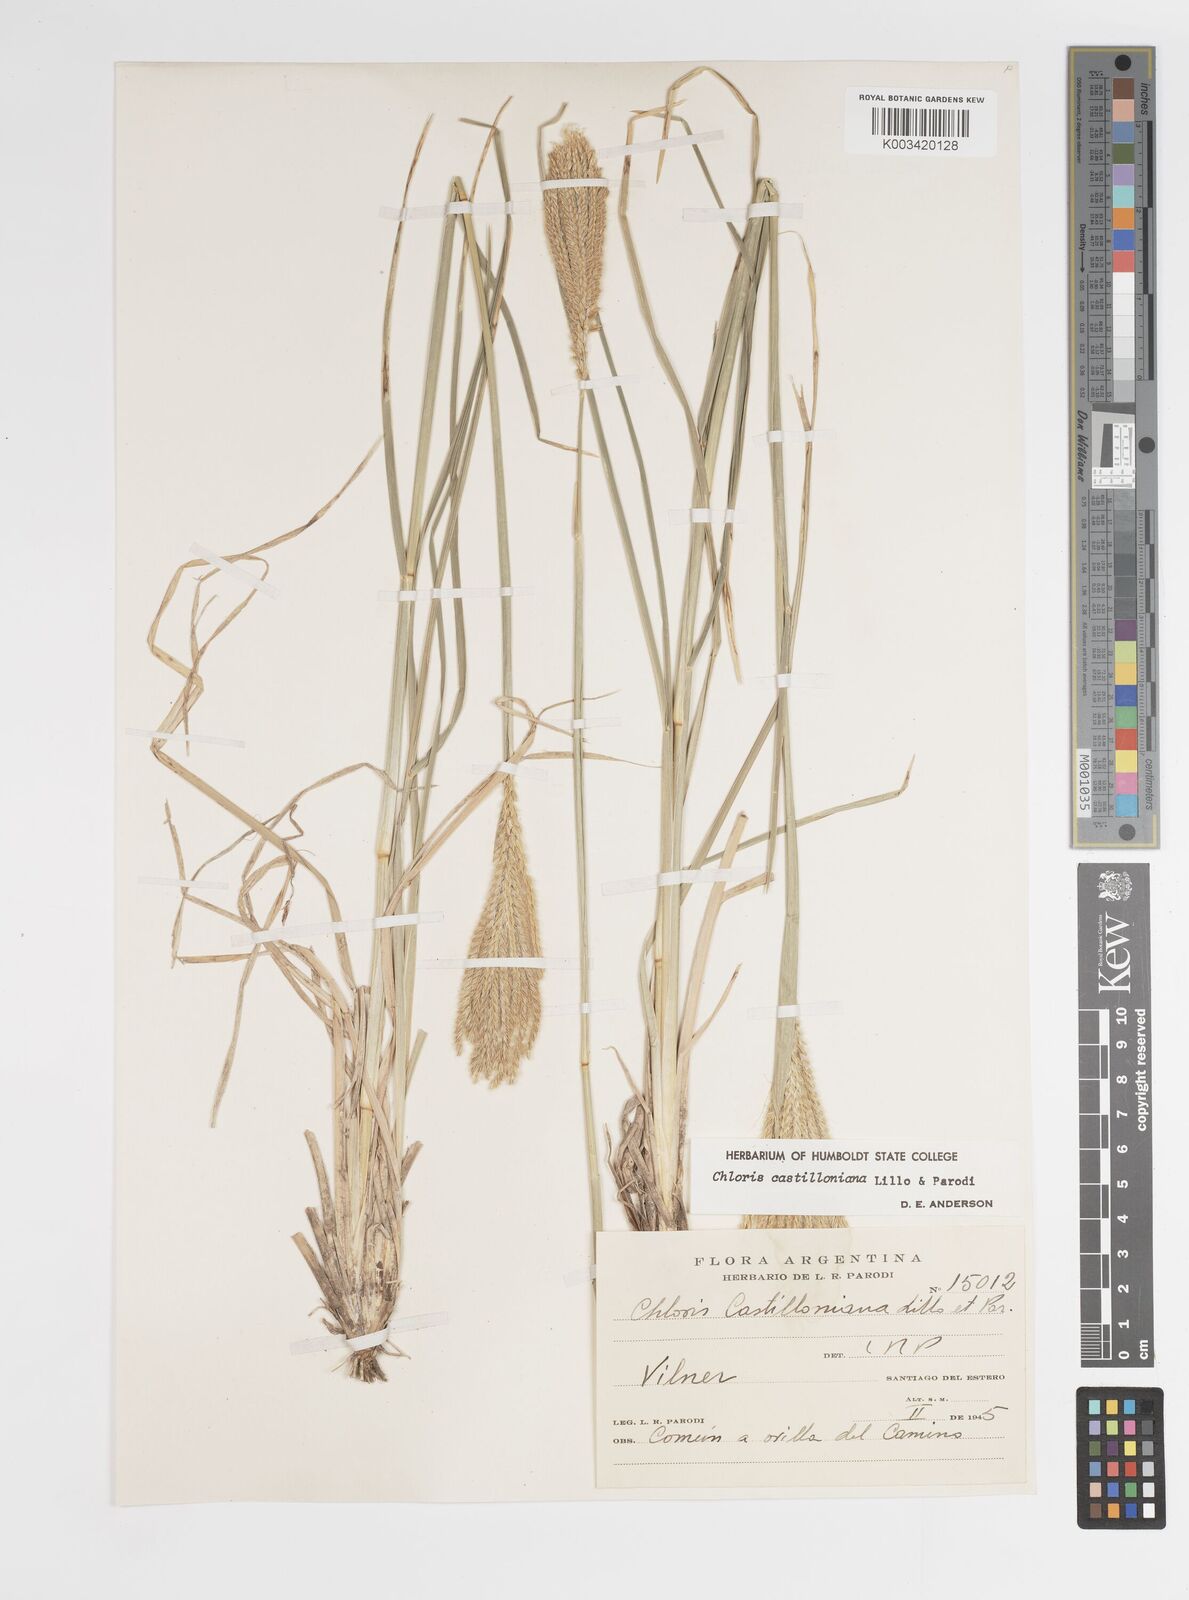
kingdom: Plantae
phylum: Tracheophyta
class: Liliopsida
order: Poales
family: Poaceae
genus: Chloris
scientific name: Chloris castilloniana
